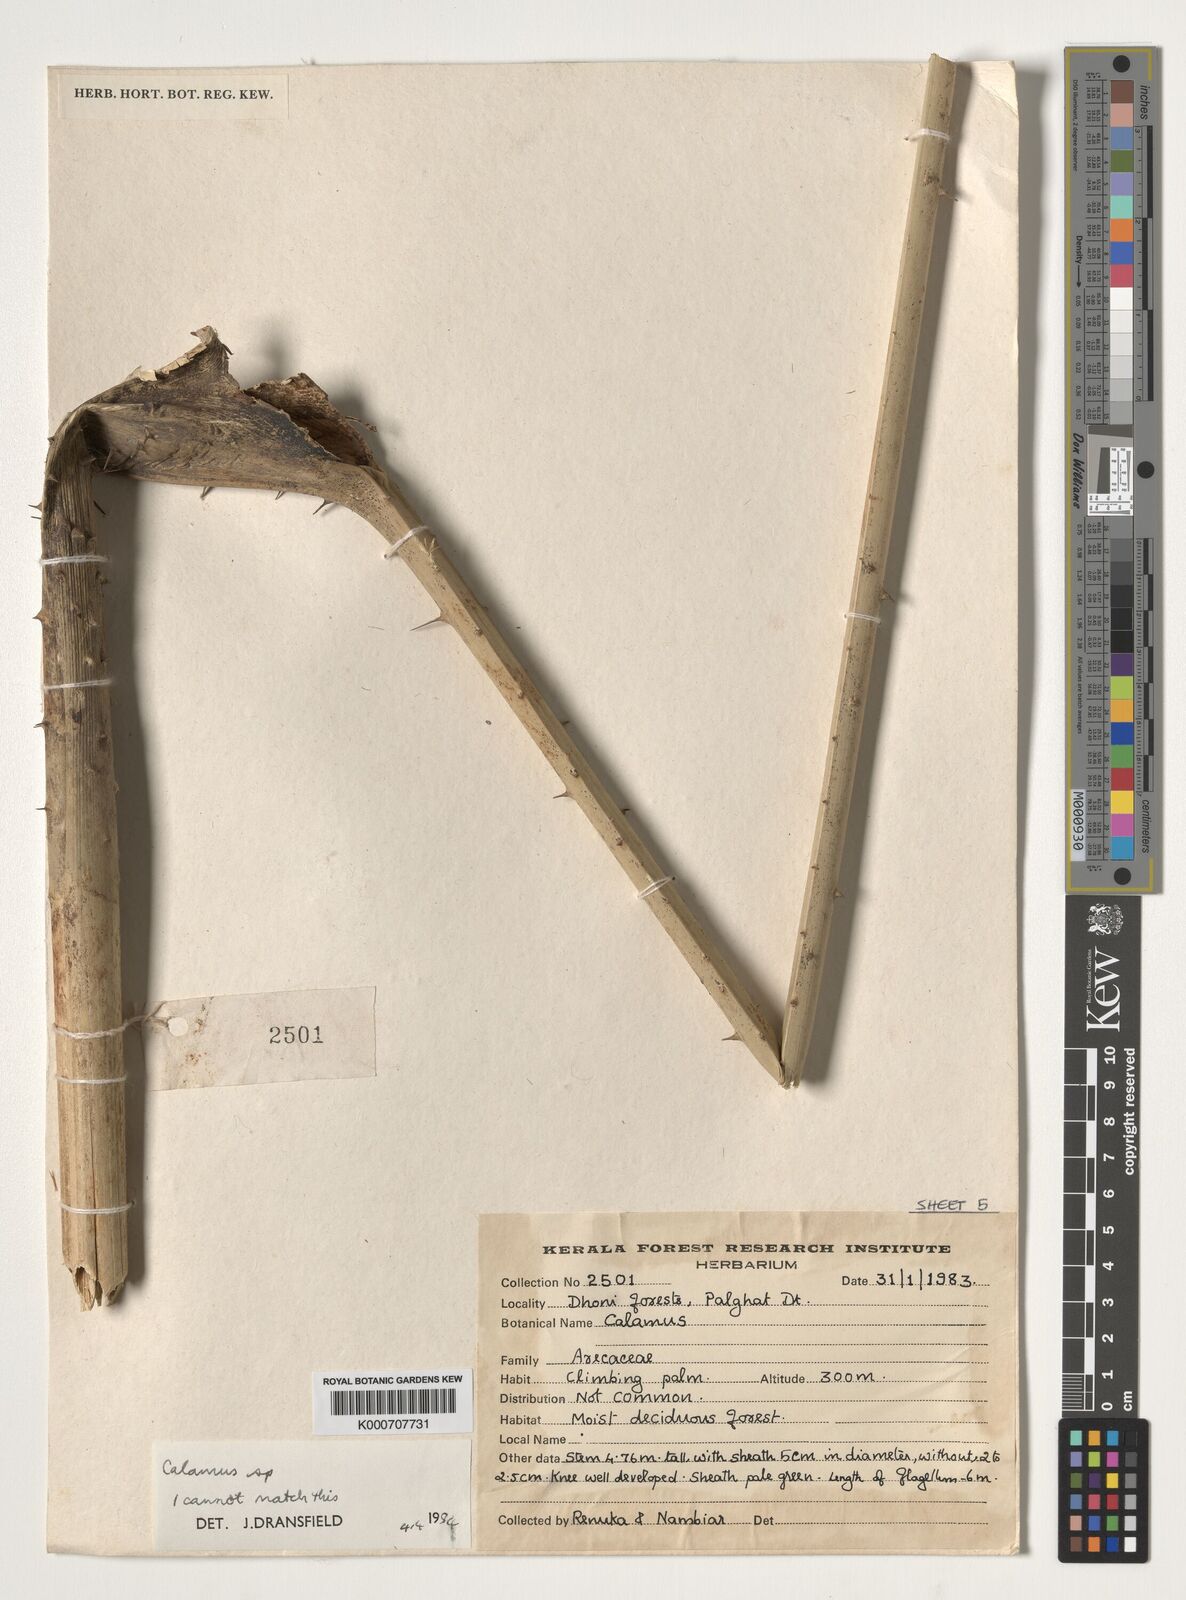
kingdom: Plantae
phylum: Tracheophyta
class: Liliopsida
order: Arecales
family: Arecaceae
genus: Calamus
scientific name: Calamus
